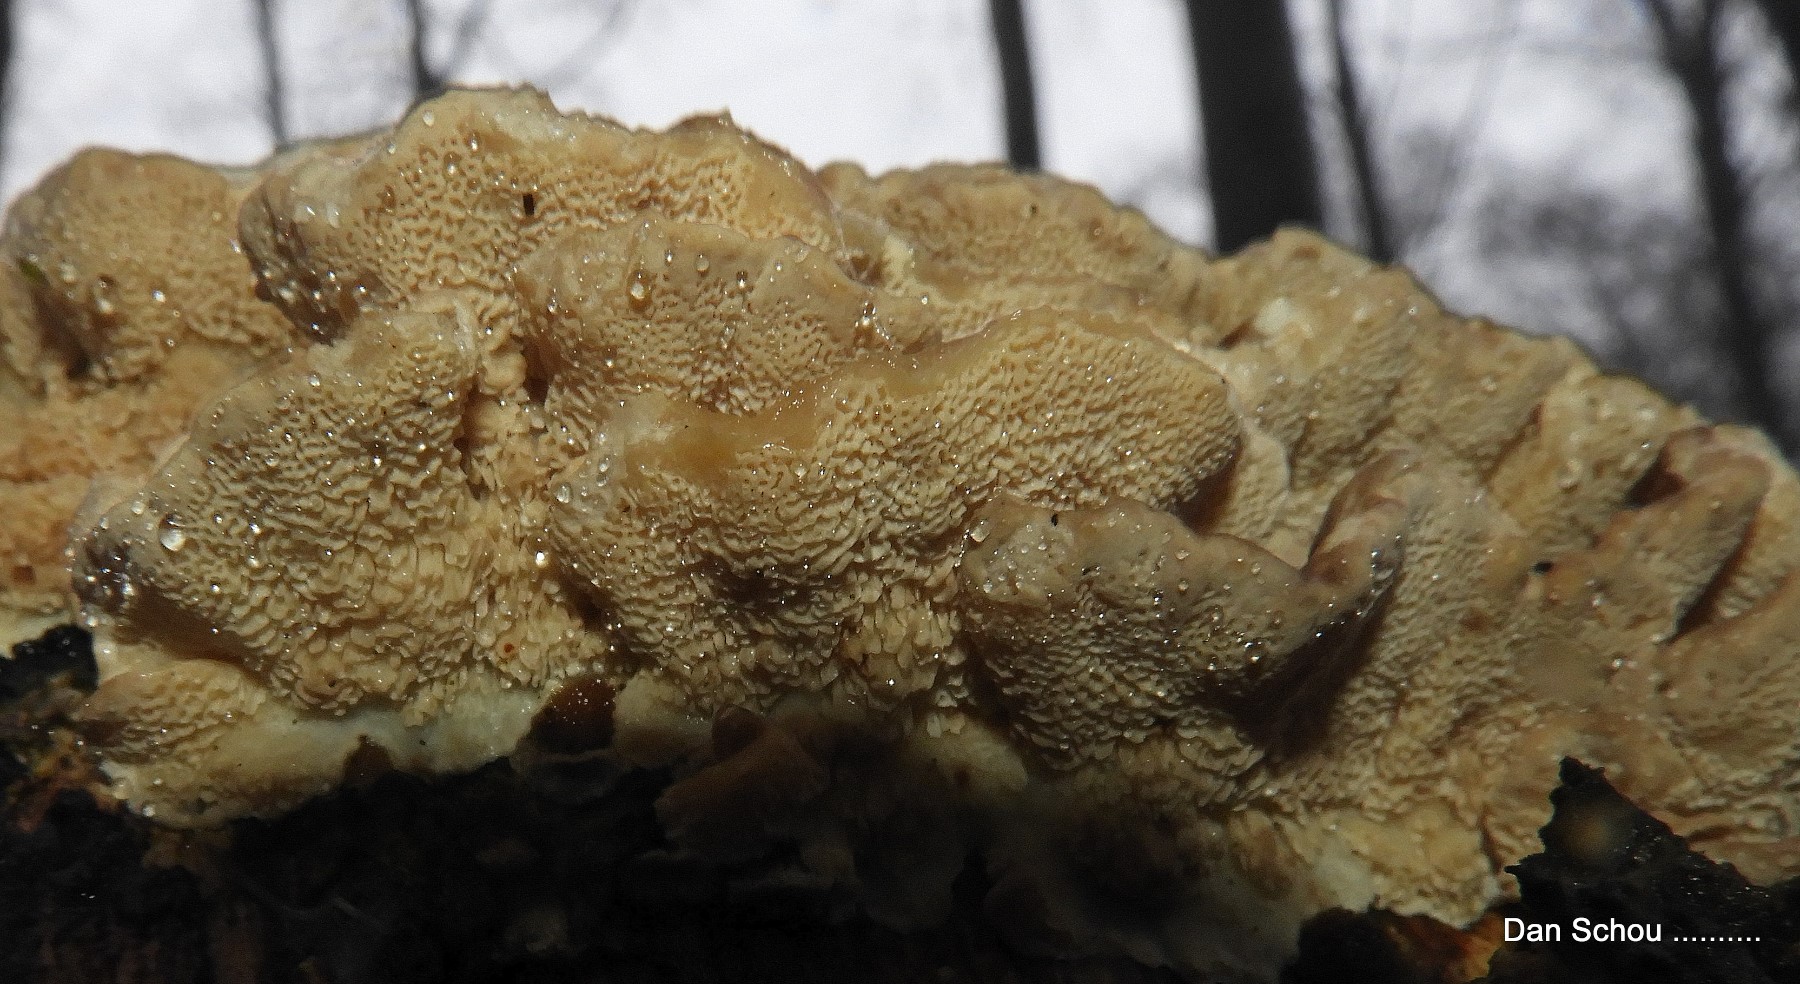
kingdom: Fungi
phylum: Basidiomycota
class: Agaricomycetes
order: Polyporales
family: Phanerochaetaceae
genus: Bjerkandera
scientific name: Bjerkandera adusta
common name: sveden sodporesvamp
